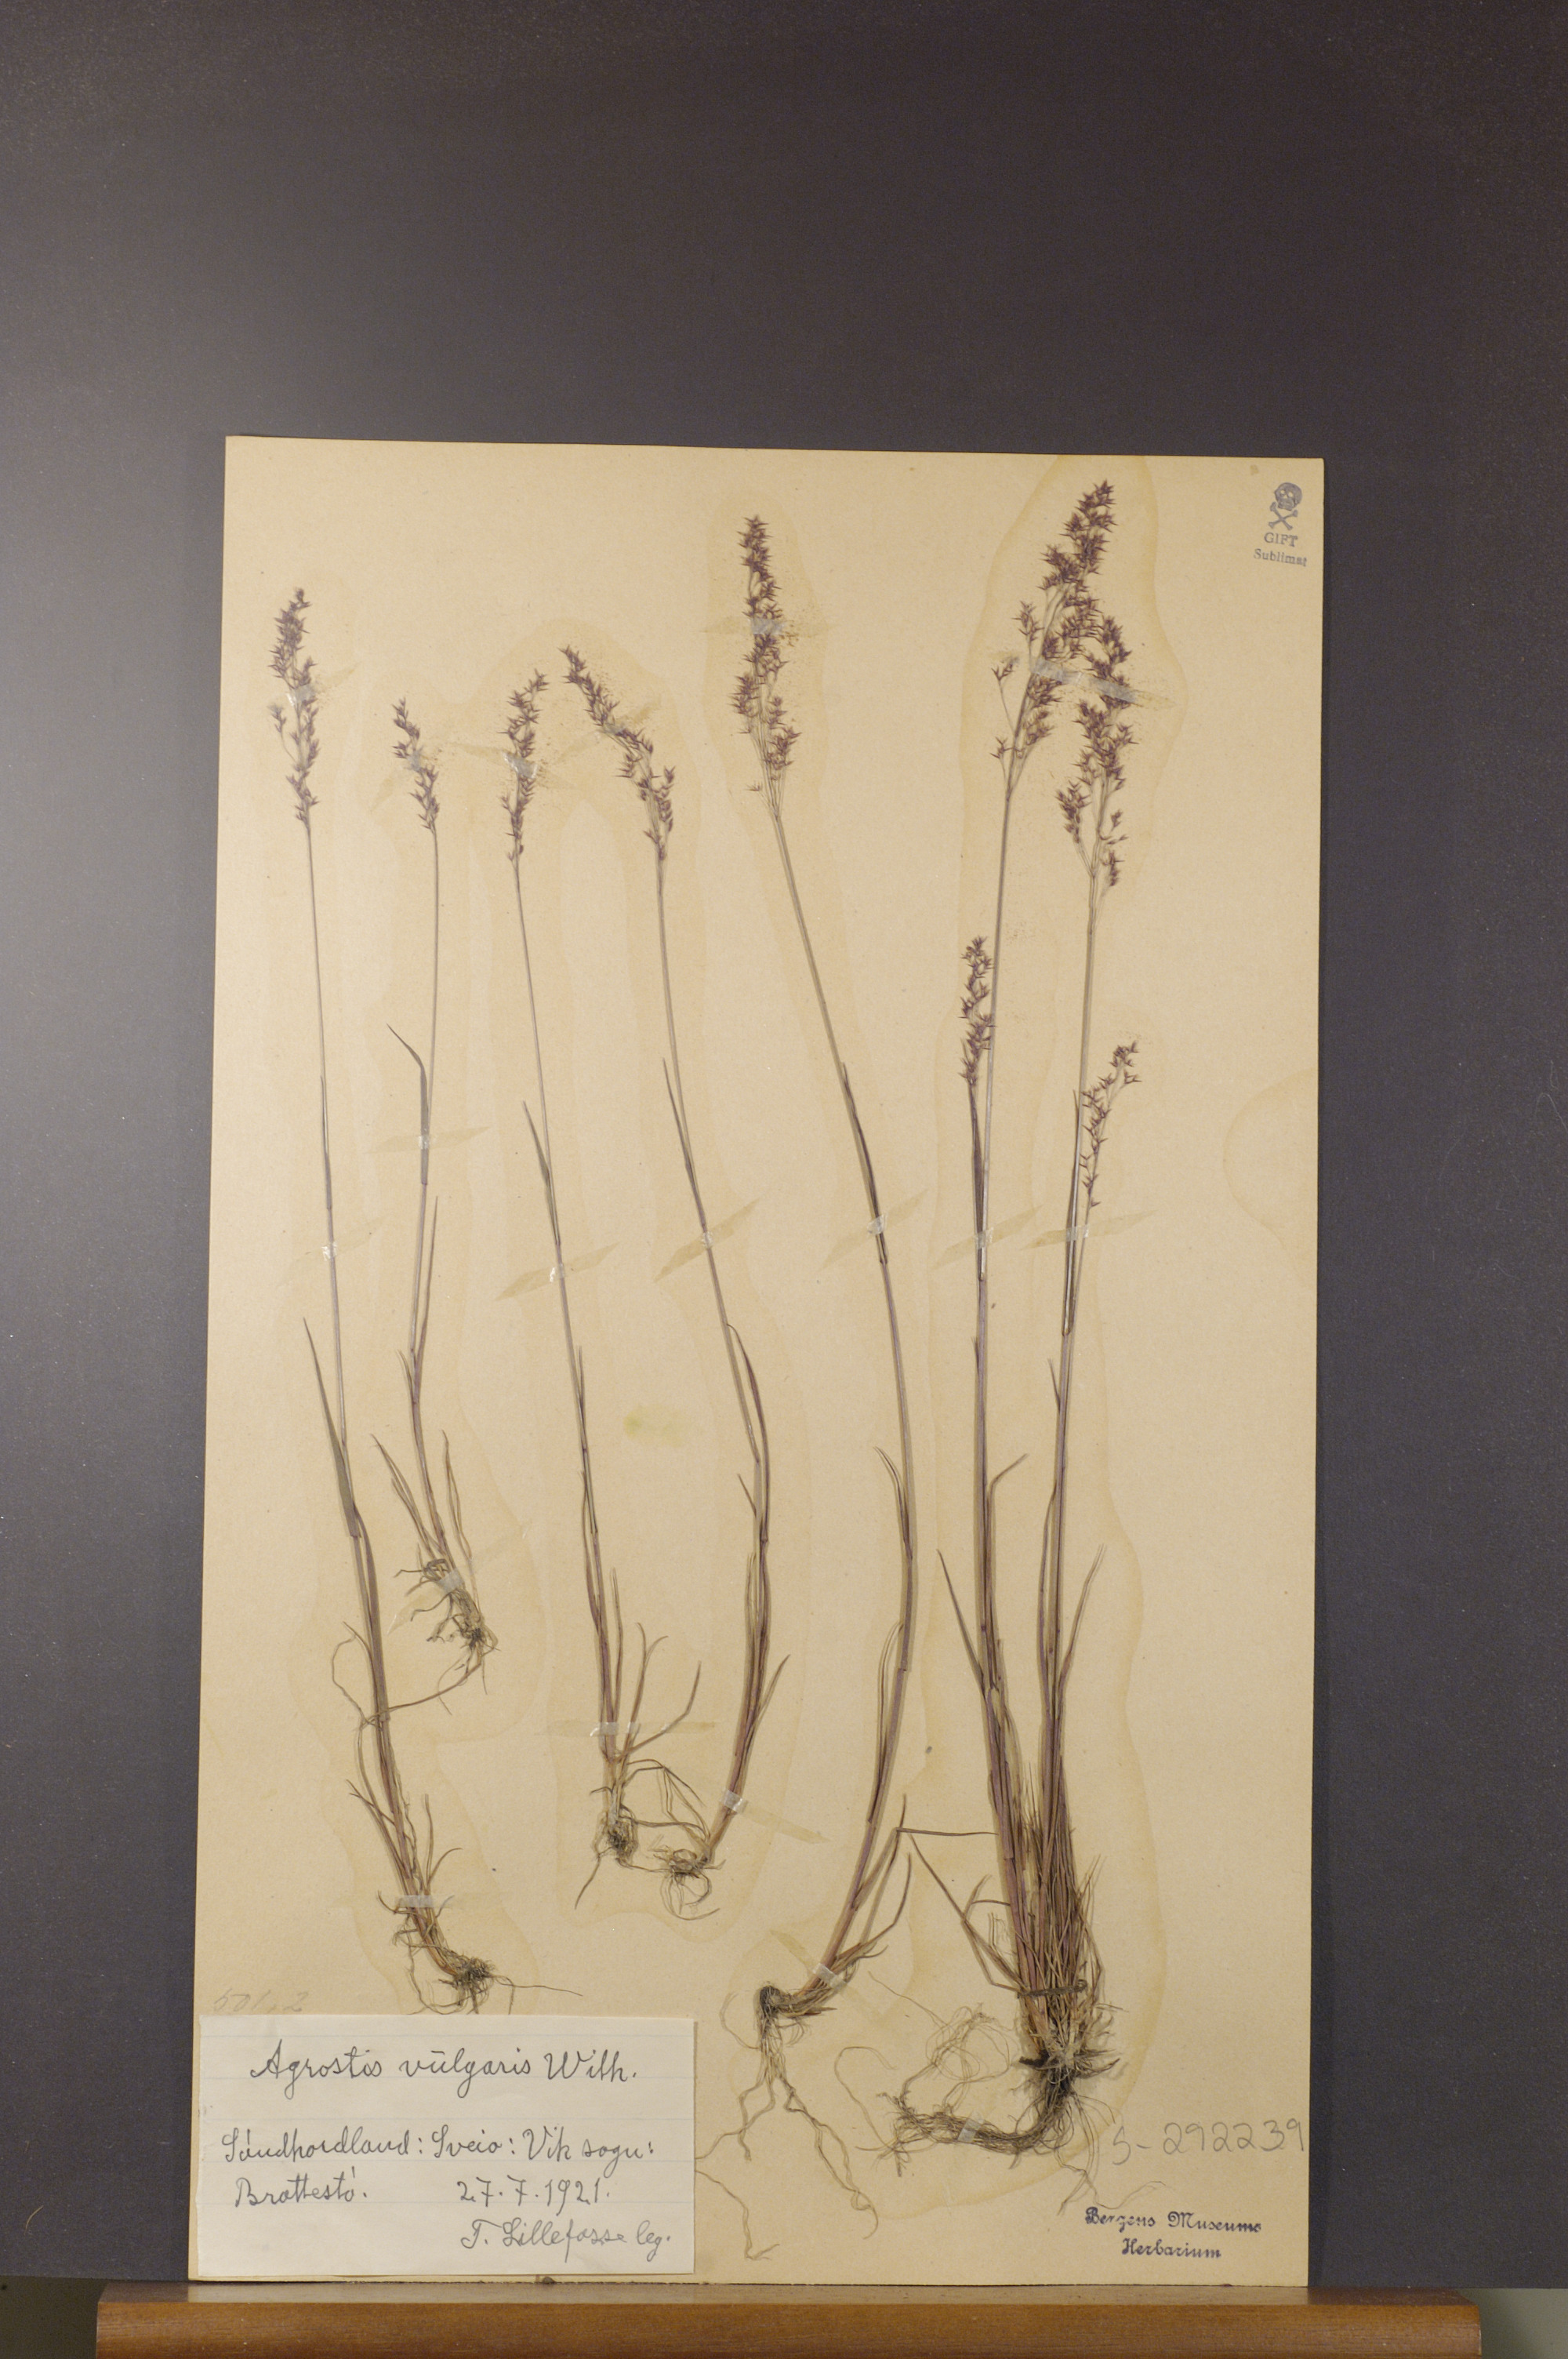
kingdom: Plantae
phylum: Tracheophyta
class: Liliopsida
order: Poales
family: Poaceae
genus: Agrostis
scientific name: Agrostis capillaris
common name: Colonial bentgrass
